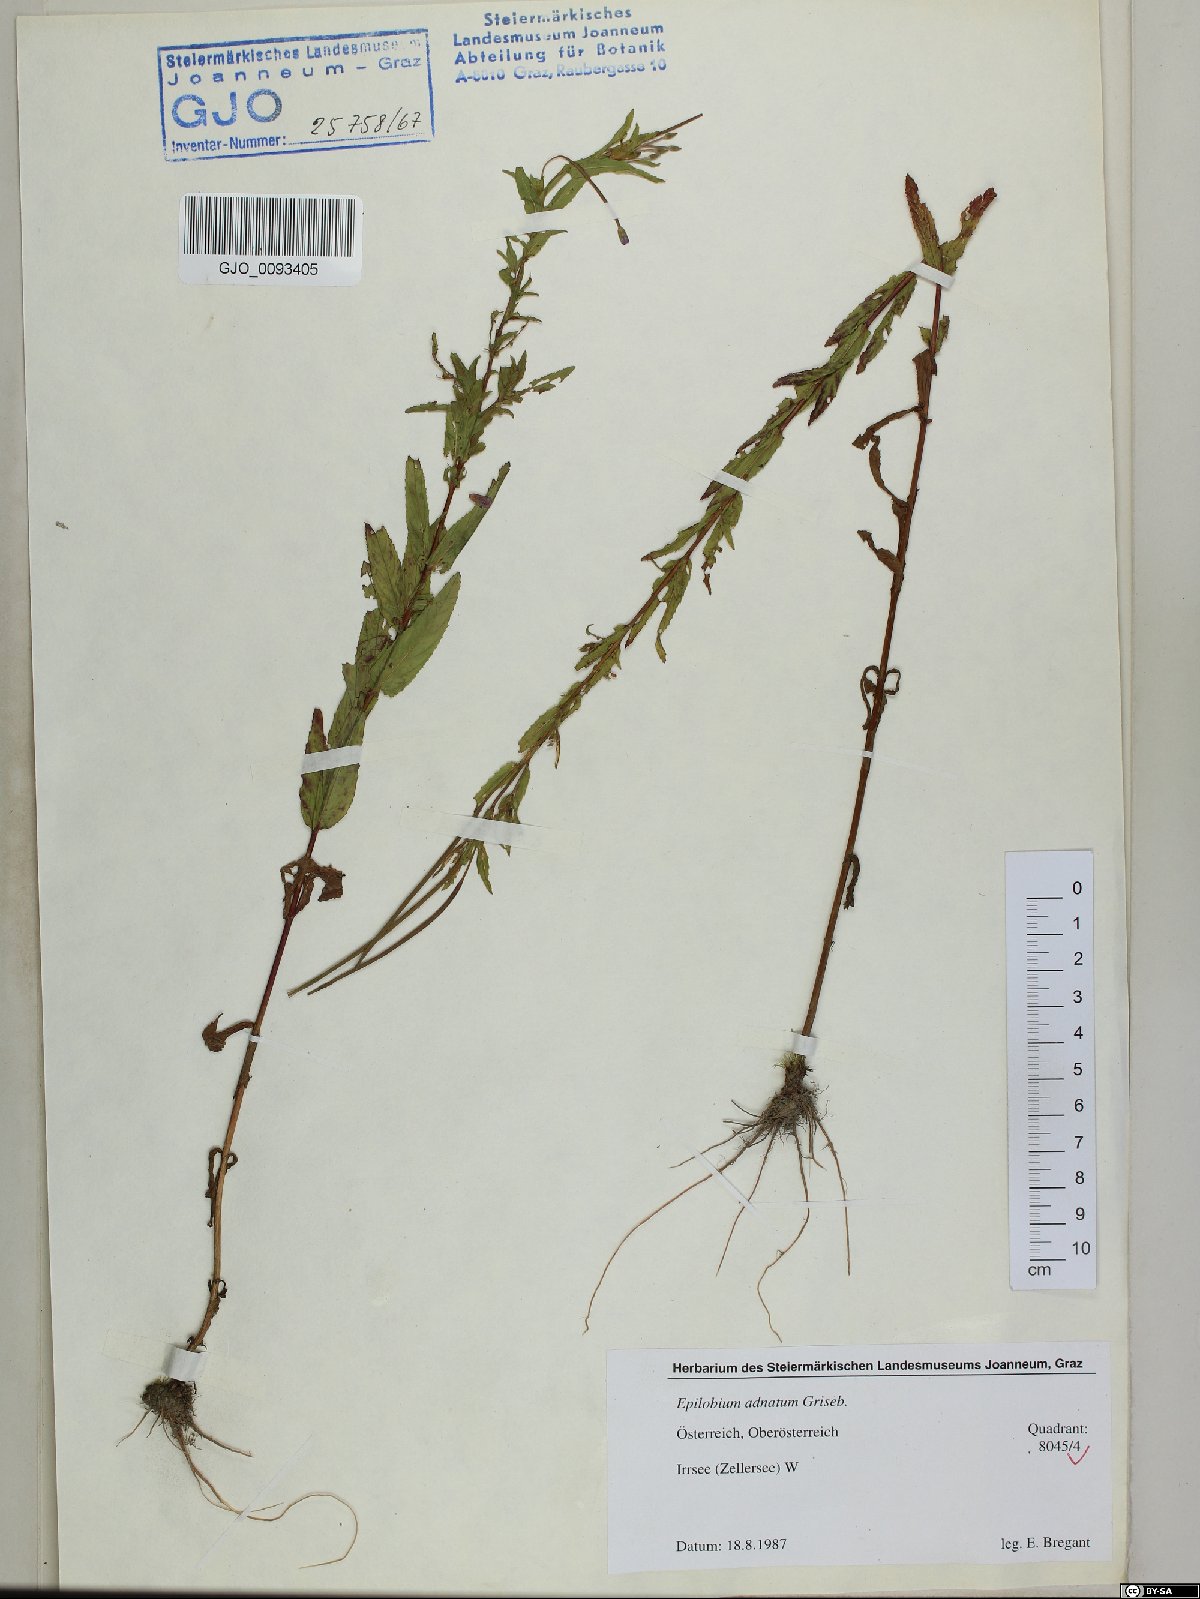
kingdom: Plantae
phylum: Tracheophyta
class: Magnoliopsida
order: Myrtales
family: Onagraceae
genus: Epilobium
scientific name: Epilobium tetragonum
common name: Square-stemmed willowherb
